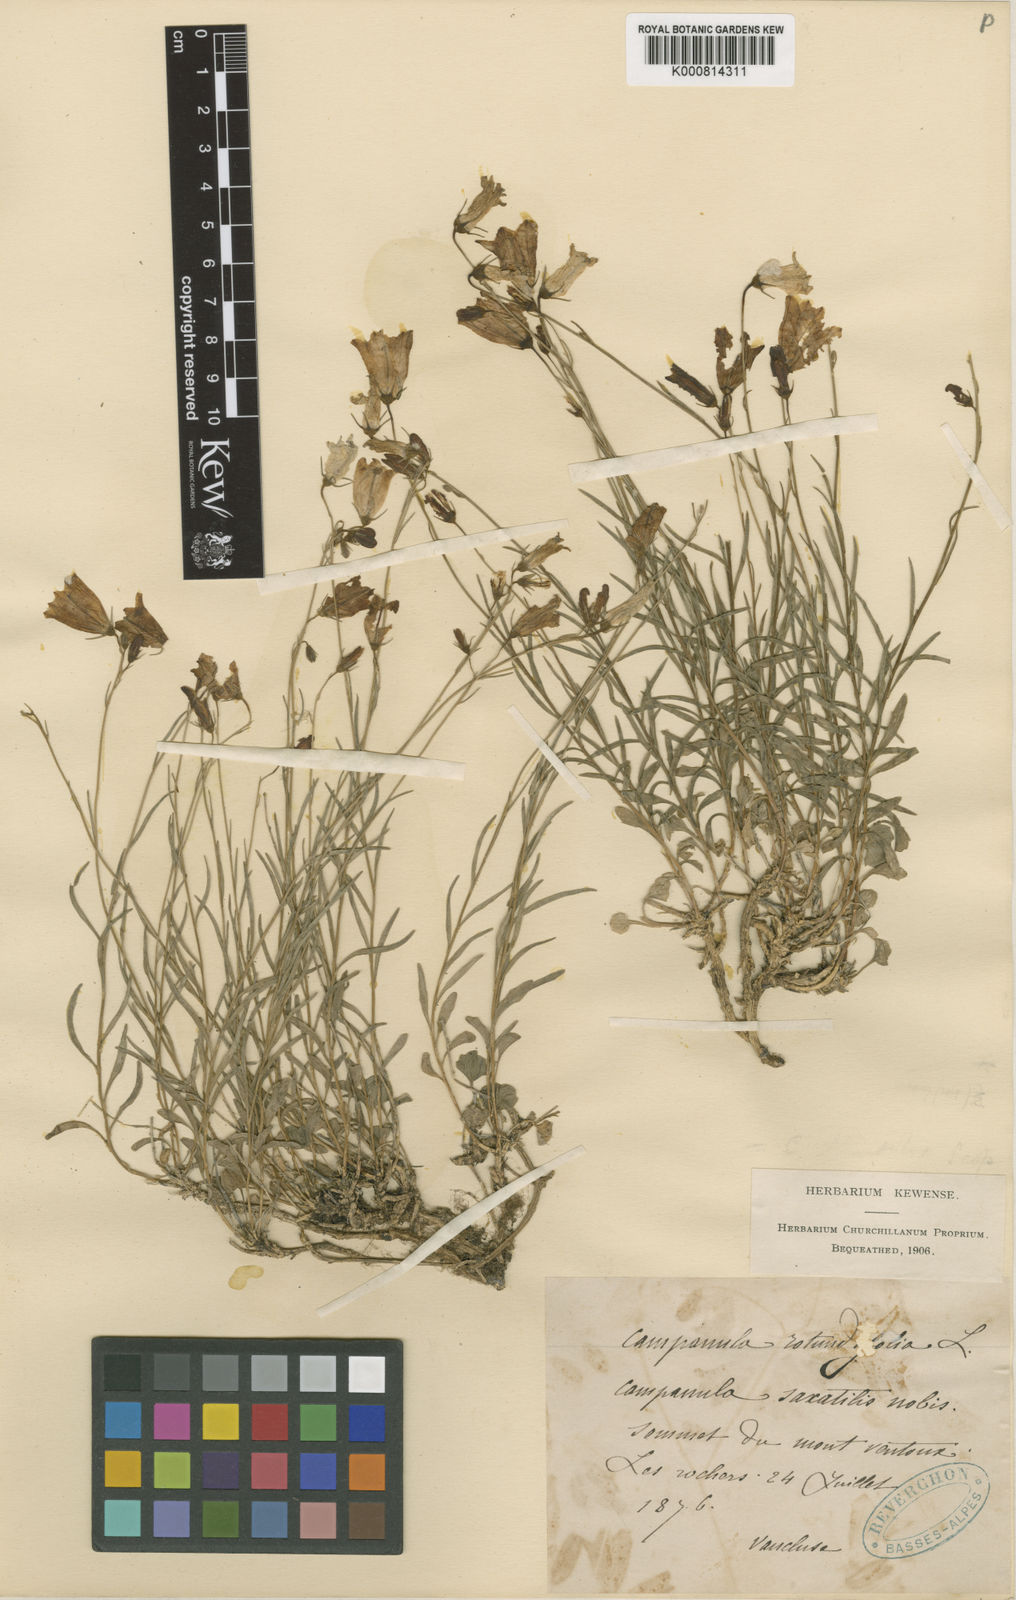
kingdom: Plantae
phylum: Tracheophyta
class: Magnoliopsida
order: Asterales
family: Campanulaceae
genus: Campanula
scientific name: Campanula fritschii
